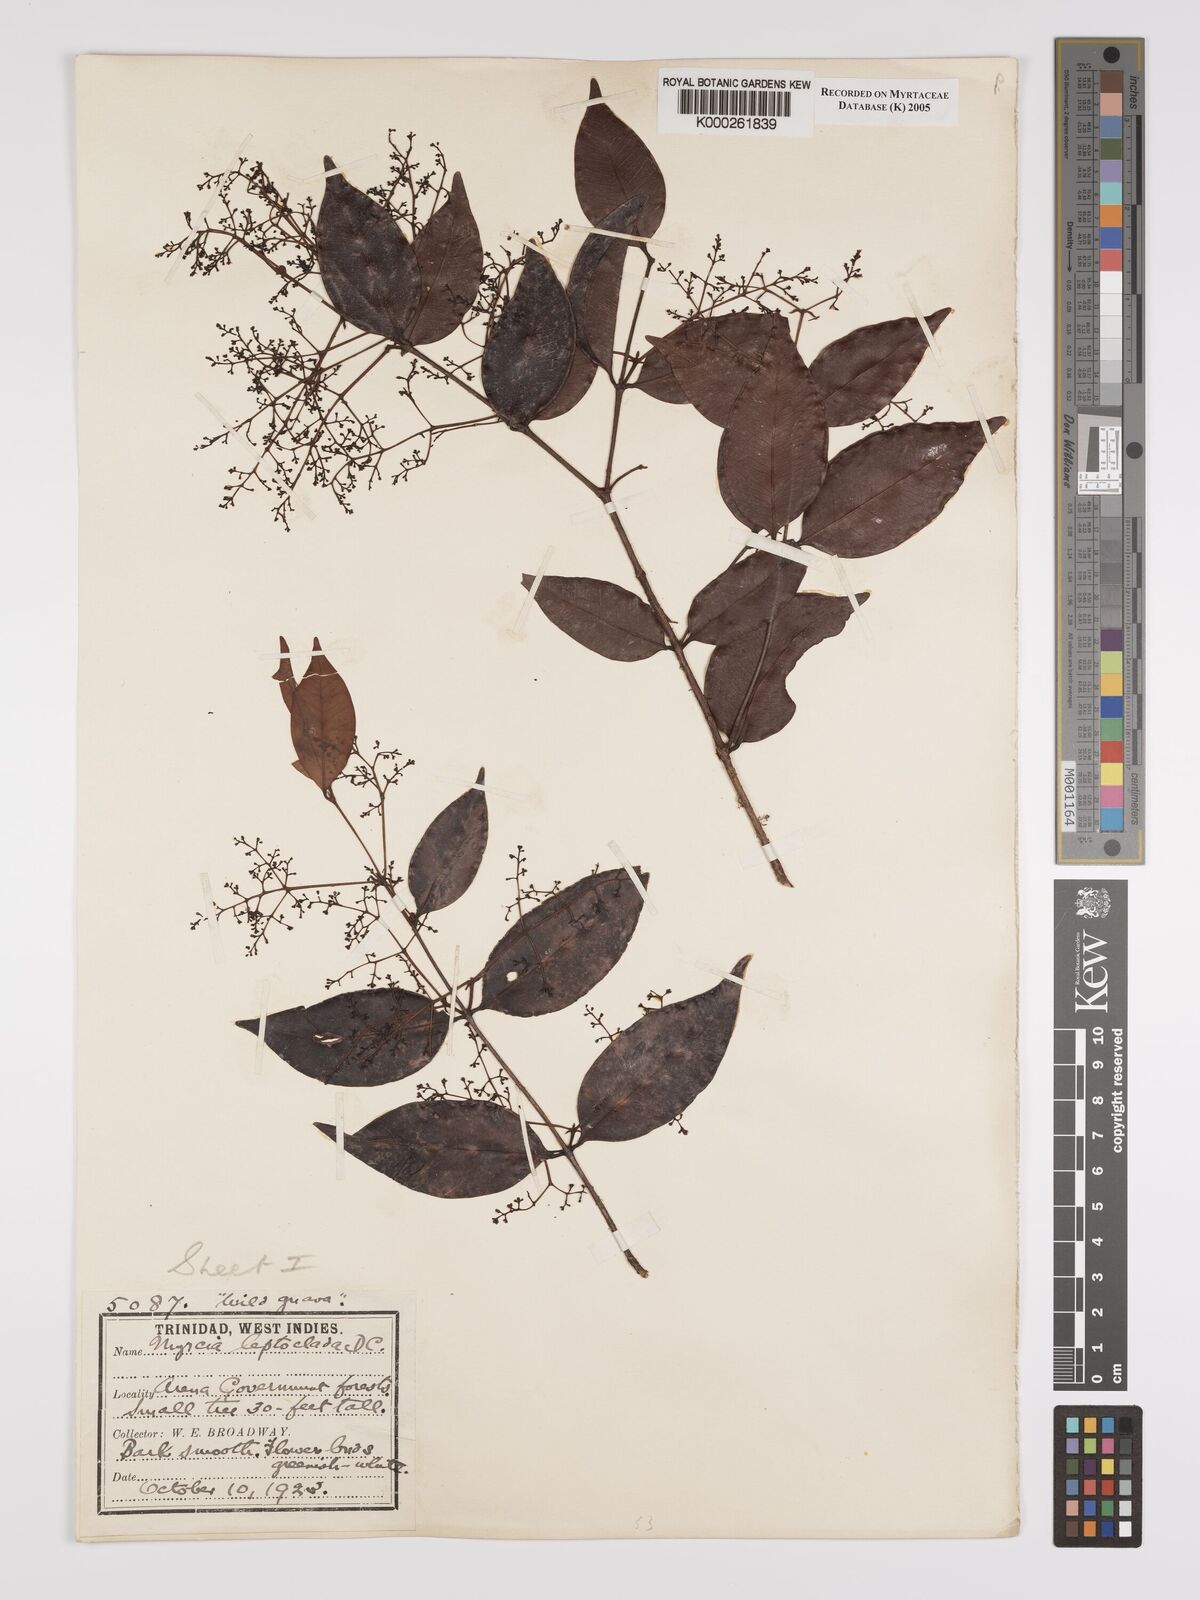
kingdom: Plantae
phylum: Tracheophyta
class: Magnoliopsida
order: Myrtales
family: Myrtaceae
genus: Myrcia
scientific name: Myrcia amazonica
